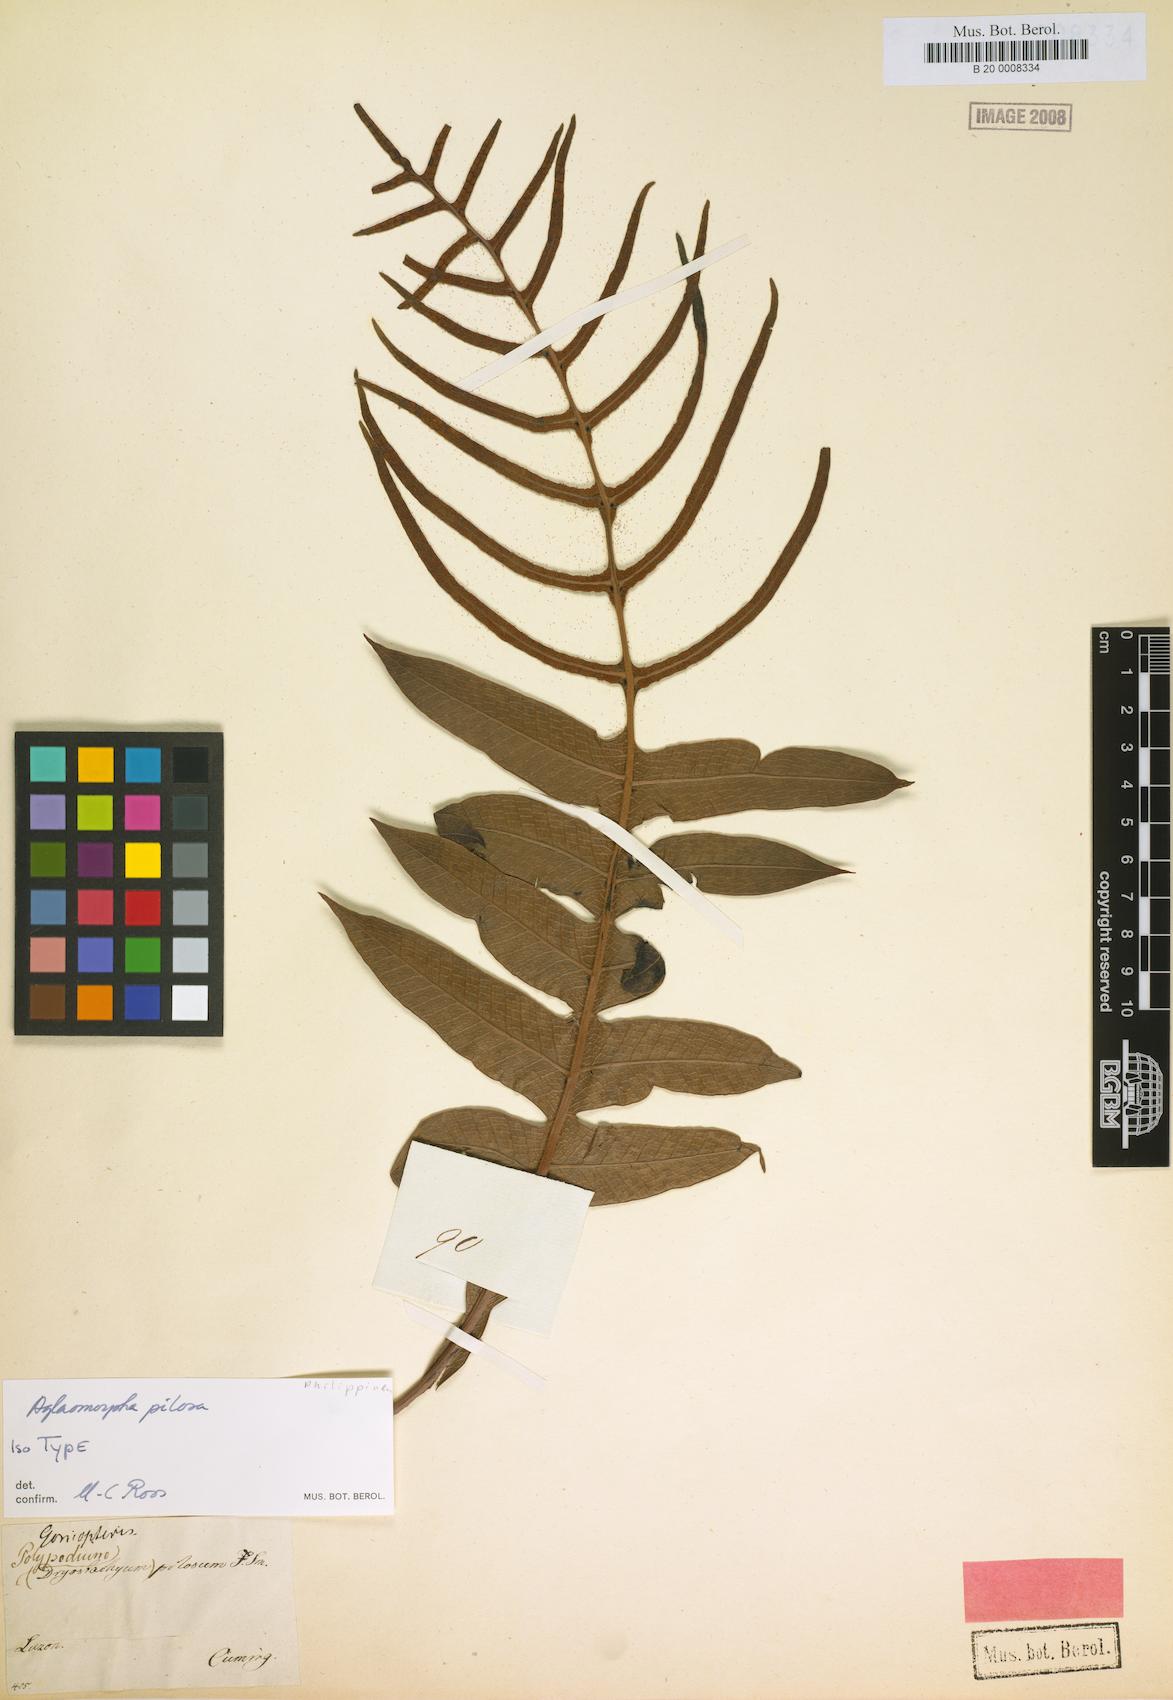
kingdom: Plantae
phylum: Tracheophyta
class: Polypodiopsida
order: Polypodiales
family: Polypodiaceae
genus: Drynaria
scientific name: Drynaria pilosa
